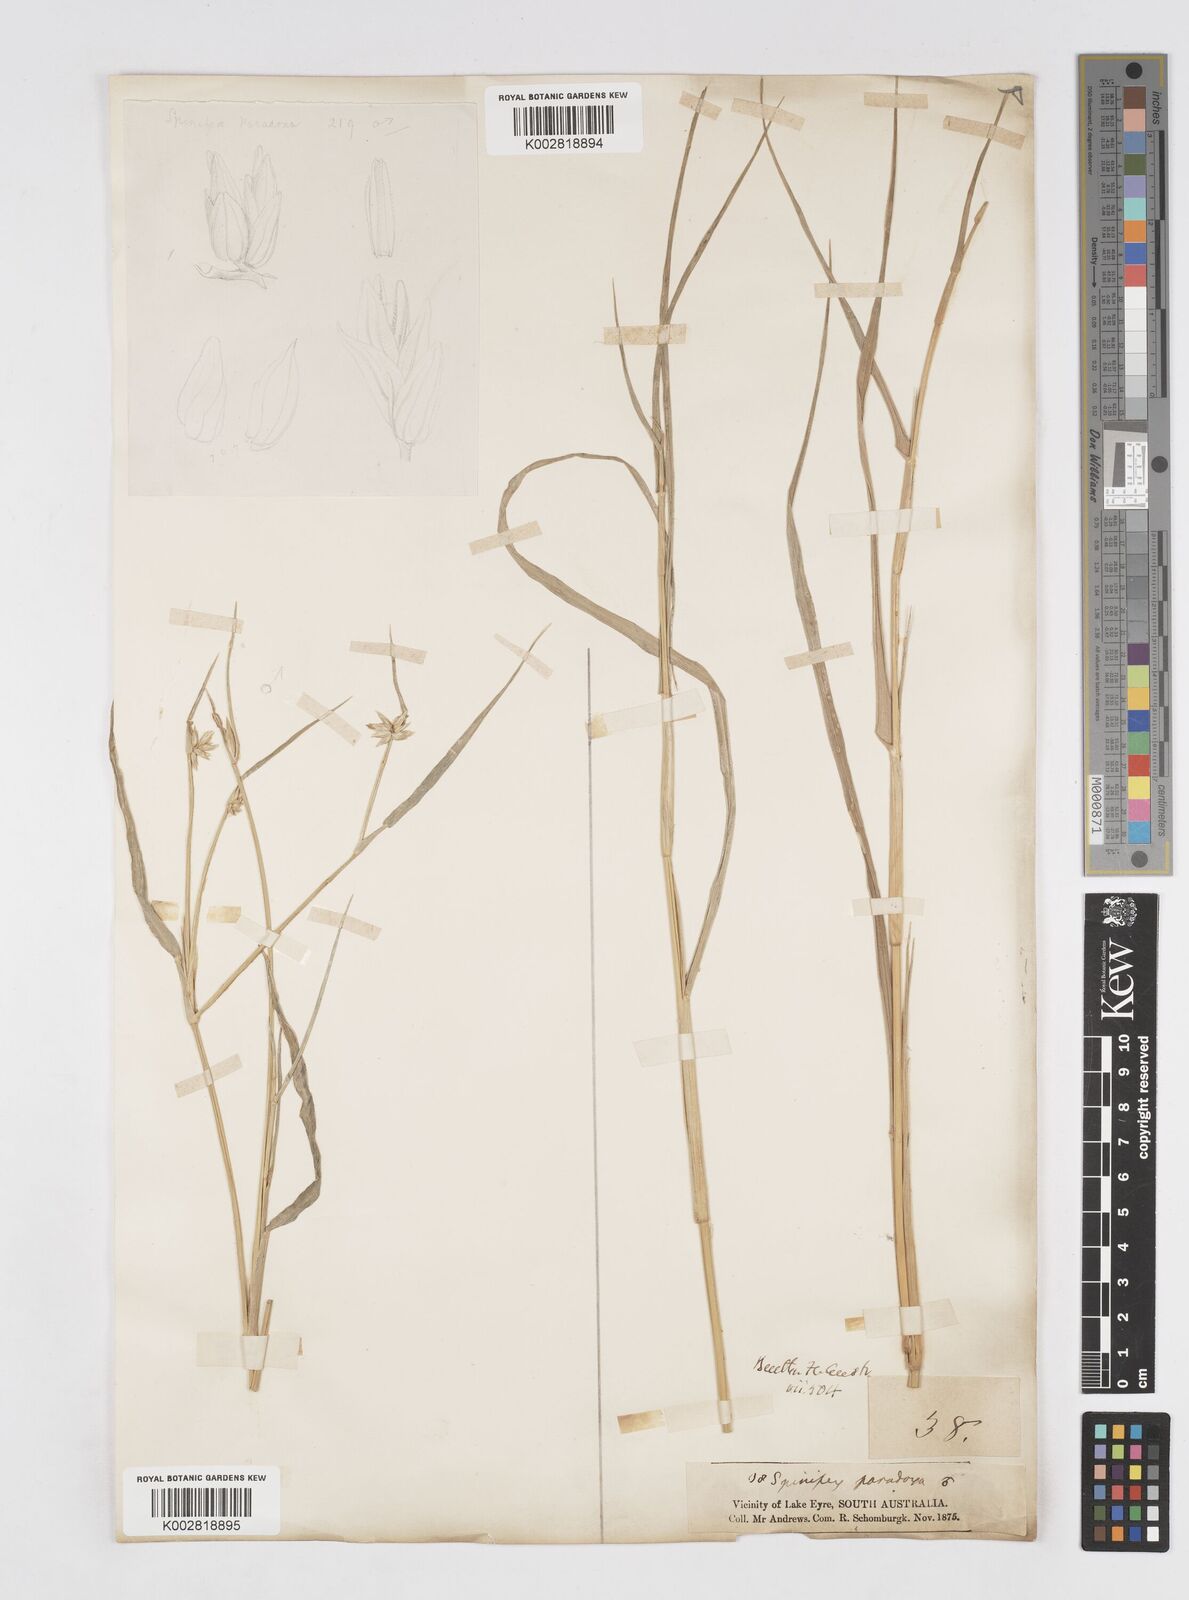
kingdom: Plantae
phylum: Tracheophyta
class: Liliopsida
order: Poales
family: Poaceae
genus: Zygochloa
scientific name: Zygochloa paradoxa
